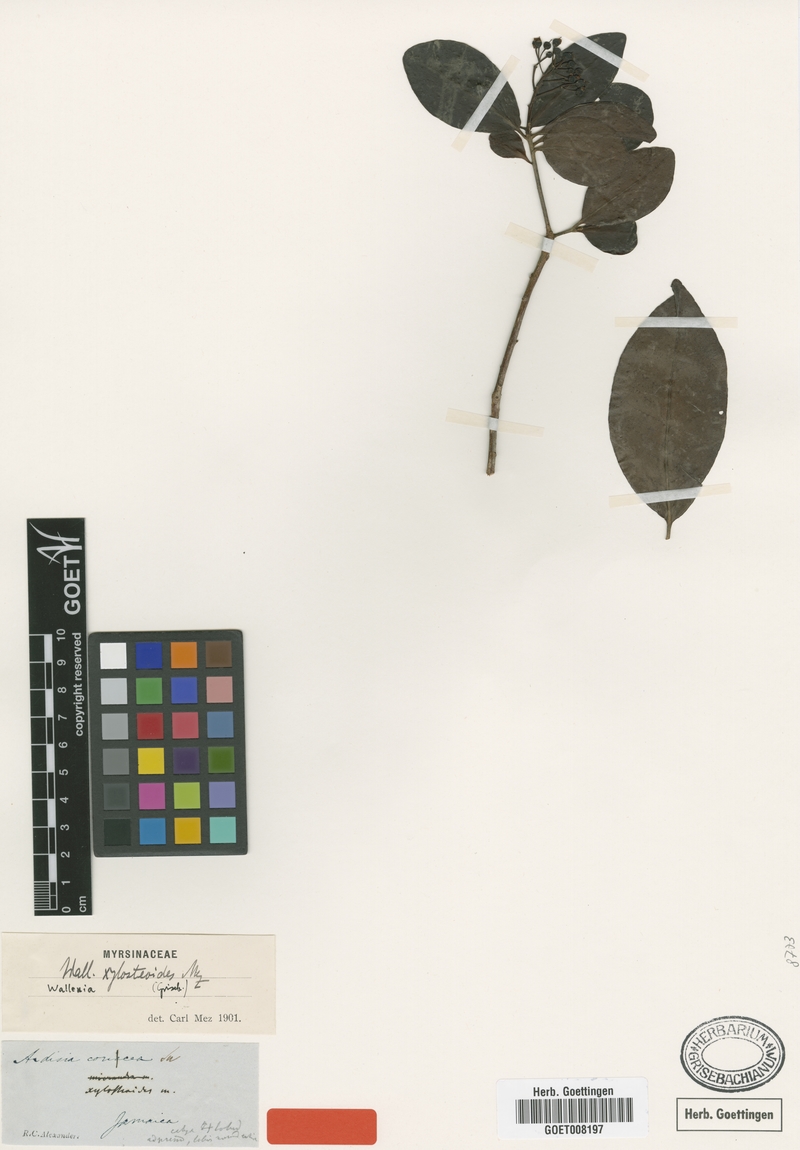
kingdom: Plantae
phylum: Tracheophyta
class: Magnoliopsida
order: Ericales
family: Primulaceae
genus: Wallenia
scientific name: Wallenia xylosteoides
